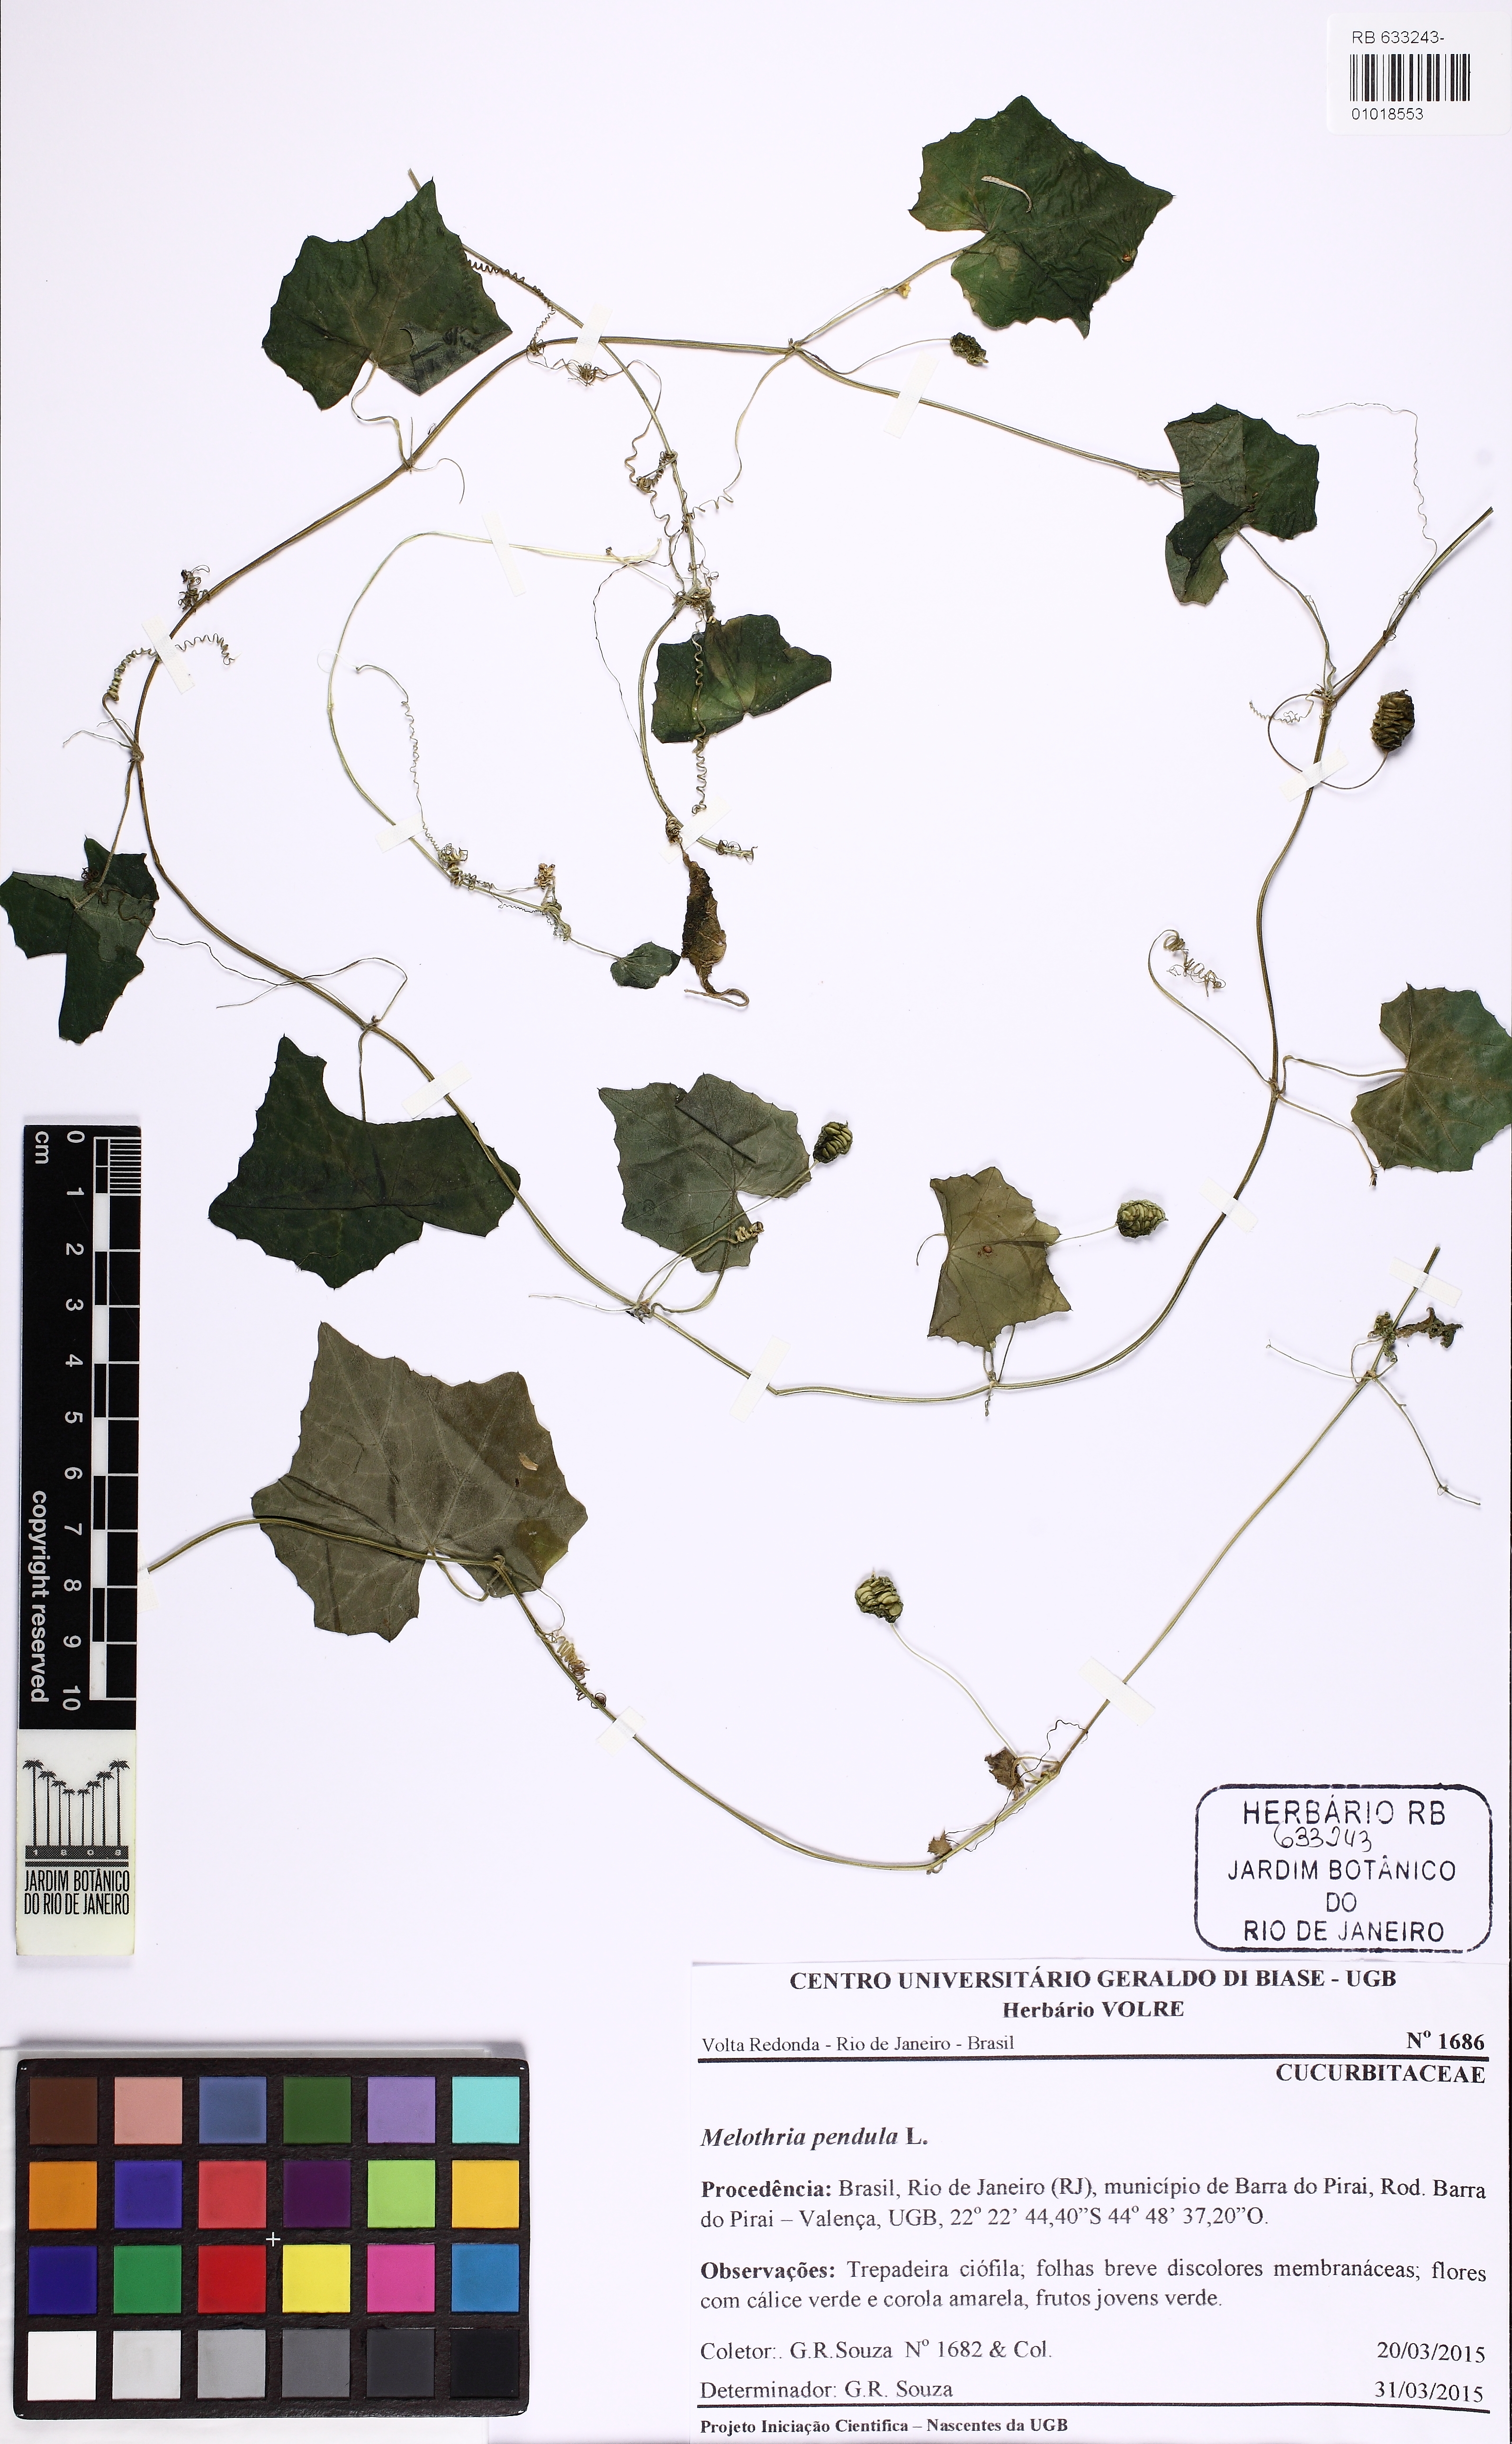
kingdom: Plantae
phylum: Tracheophyta
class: Magnoliopsida
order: Cucurbitales
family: Cucurbitaceae
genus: Melothria
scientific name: Melothria pendula
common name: Creeping-cucumber
